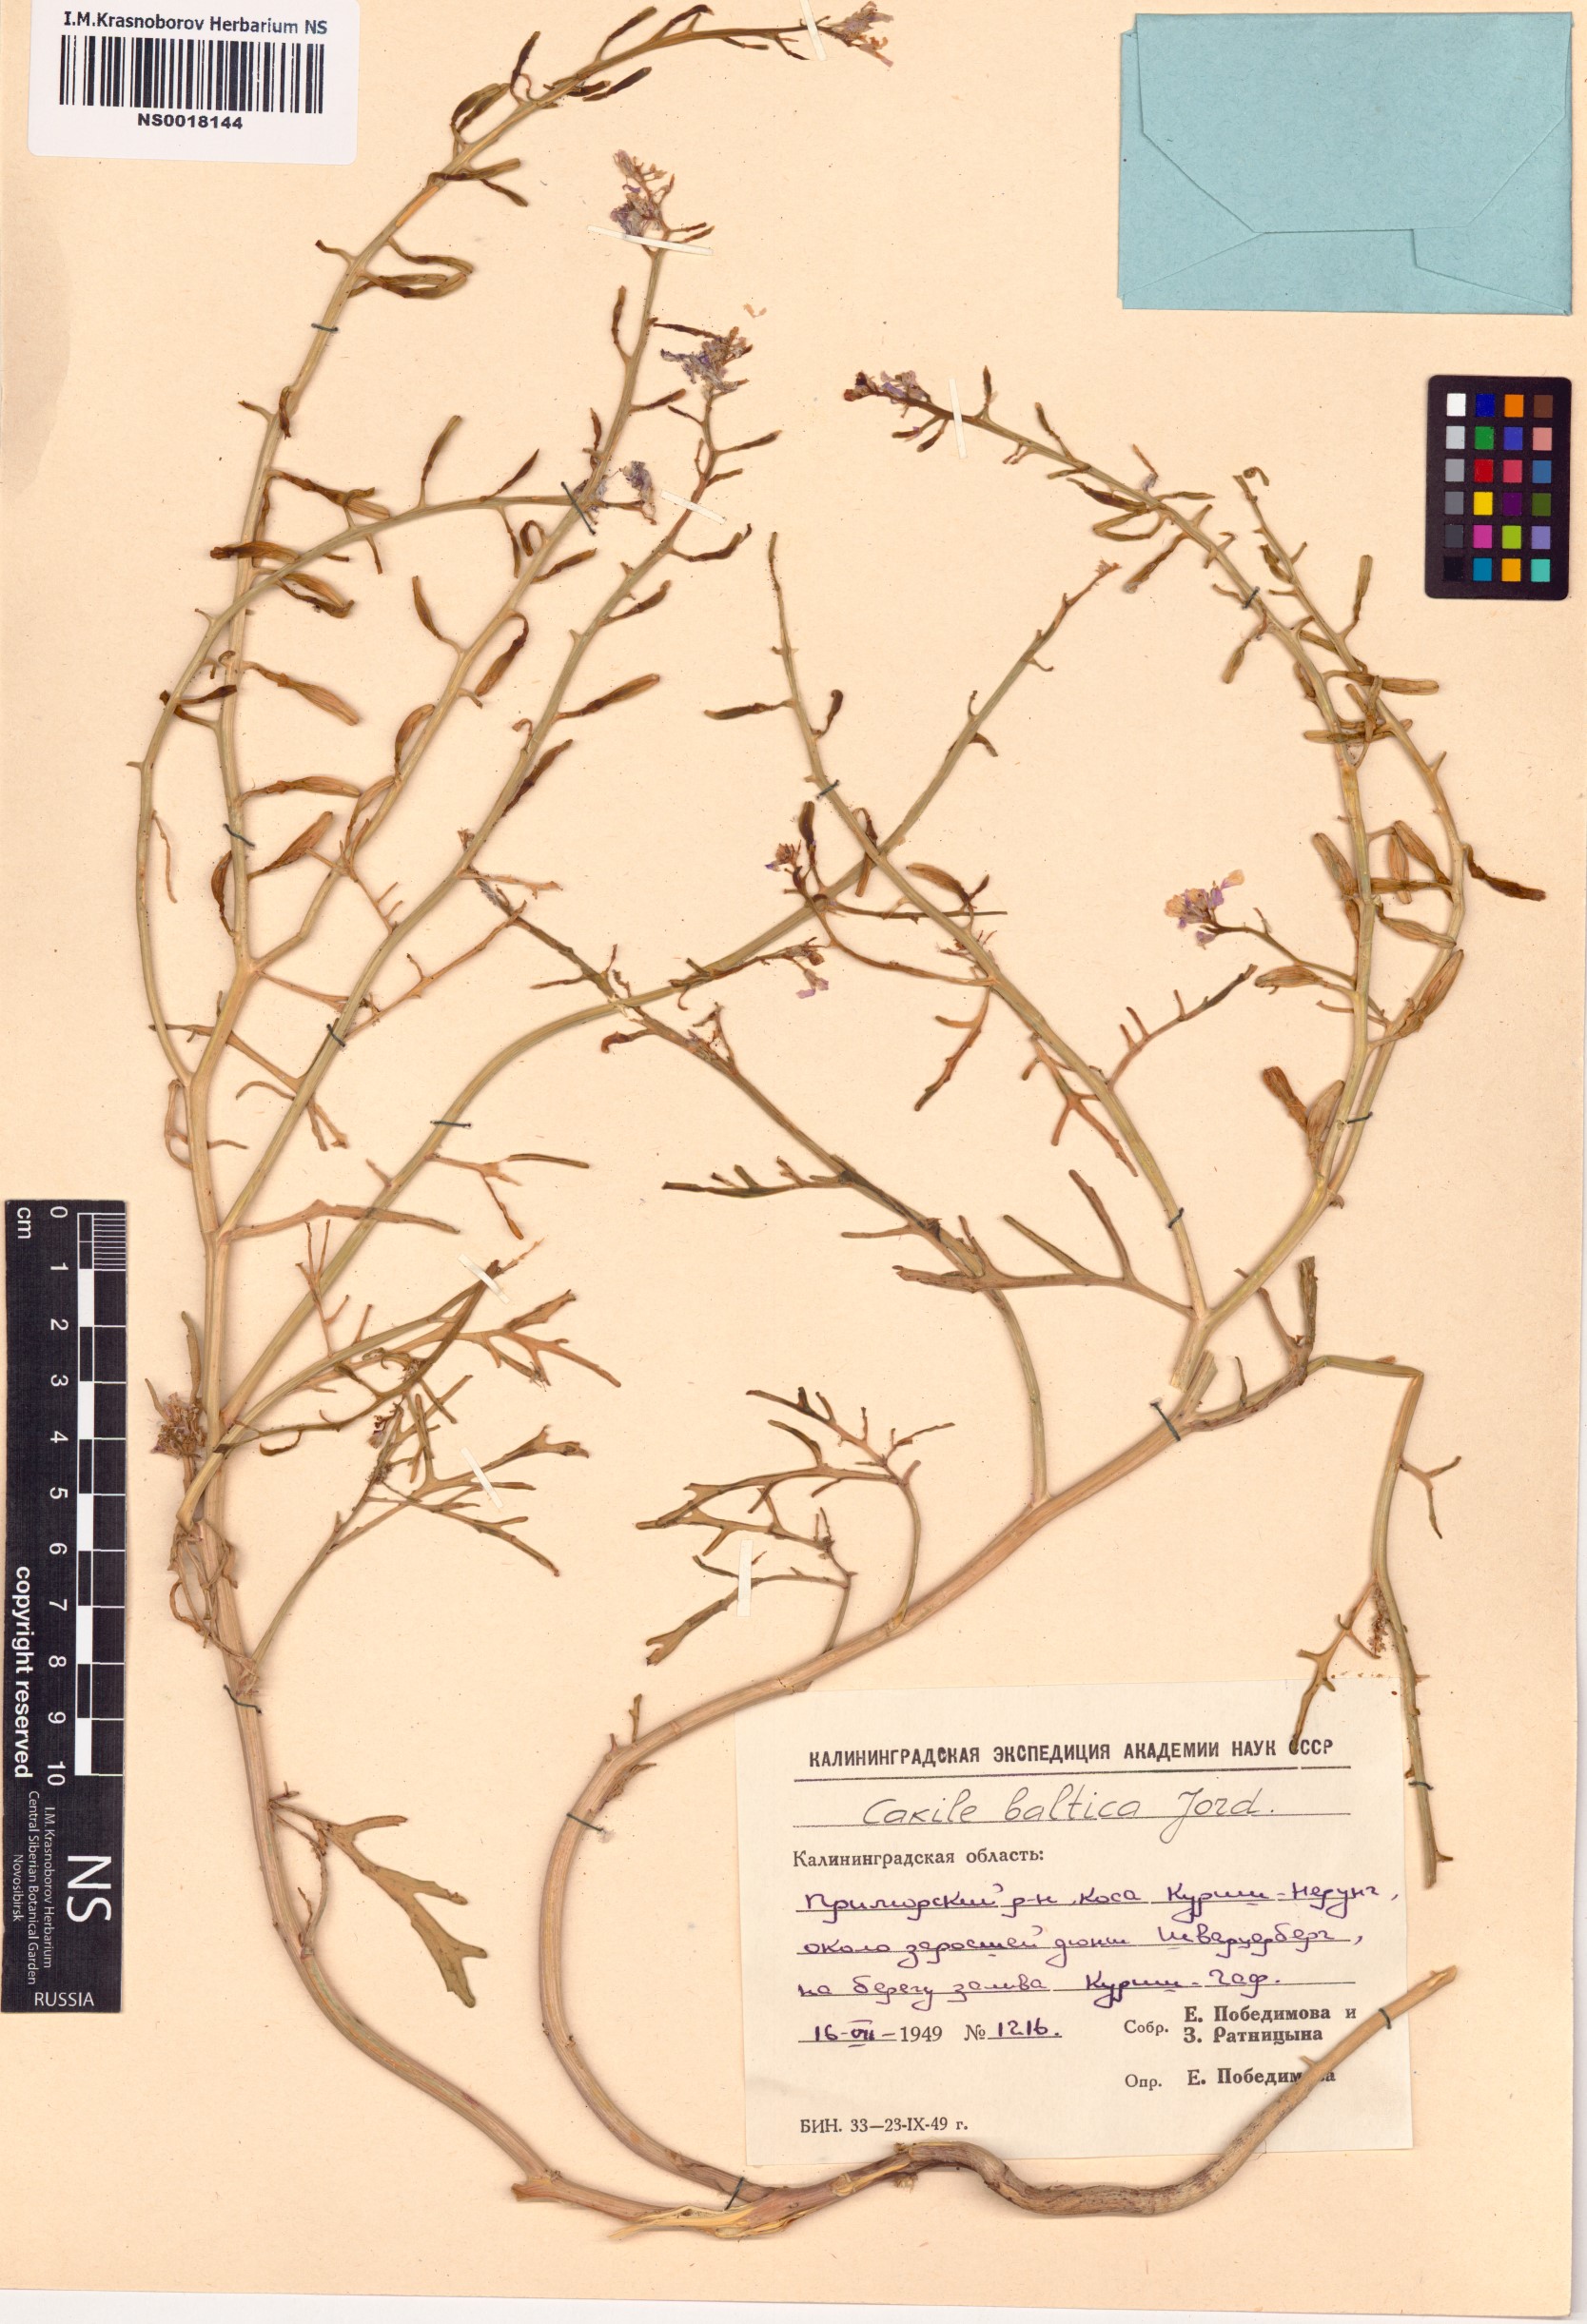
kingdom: Plantae
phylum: Tracheophyta
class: Magnoliopsida
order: Brassicales
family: Brassicaceae
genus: Cakile
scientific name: Cakile maritima
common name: Sea rocket
